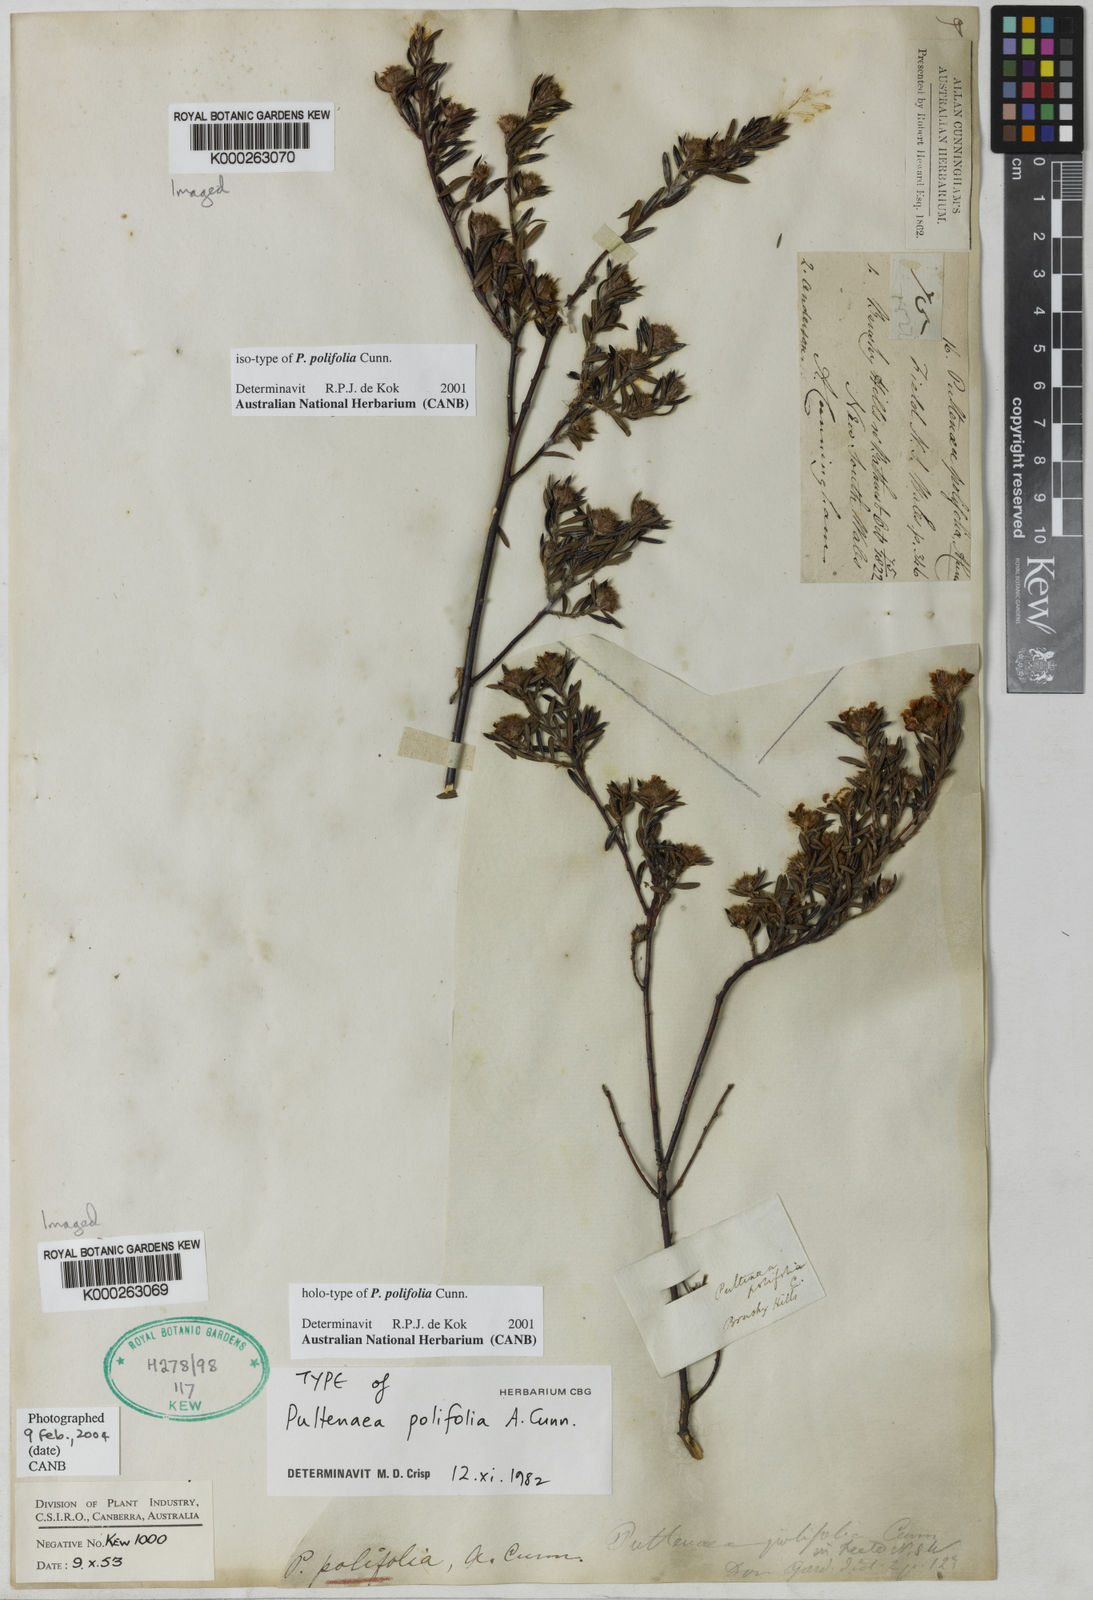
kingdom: Plantae
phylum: Tracheophyta
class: Magnoliopsida
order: Fabales
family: Fabaceae
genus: Pultenaea
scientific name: Pultenaea polifolia
